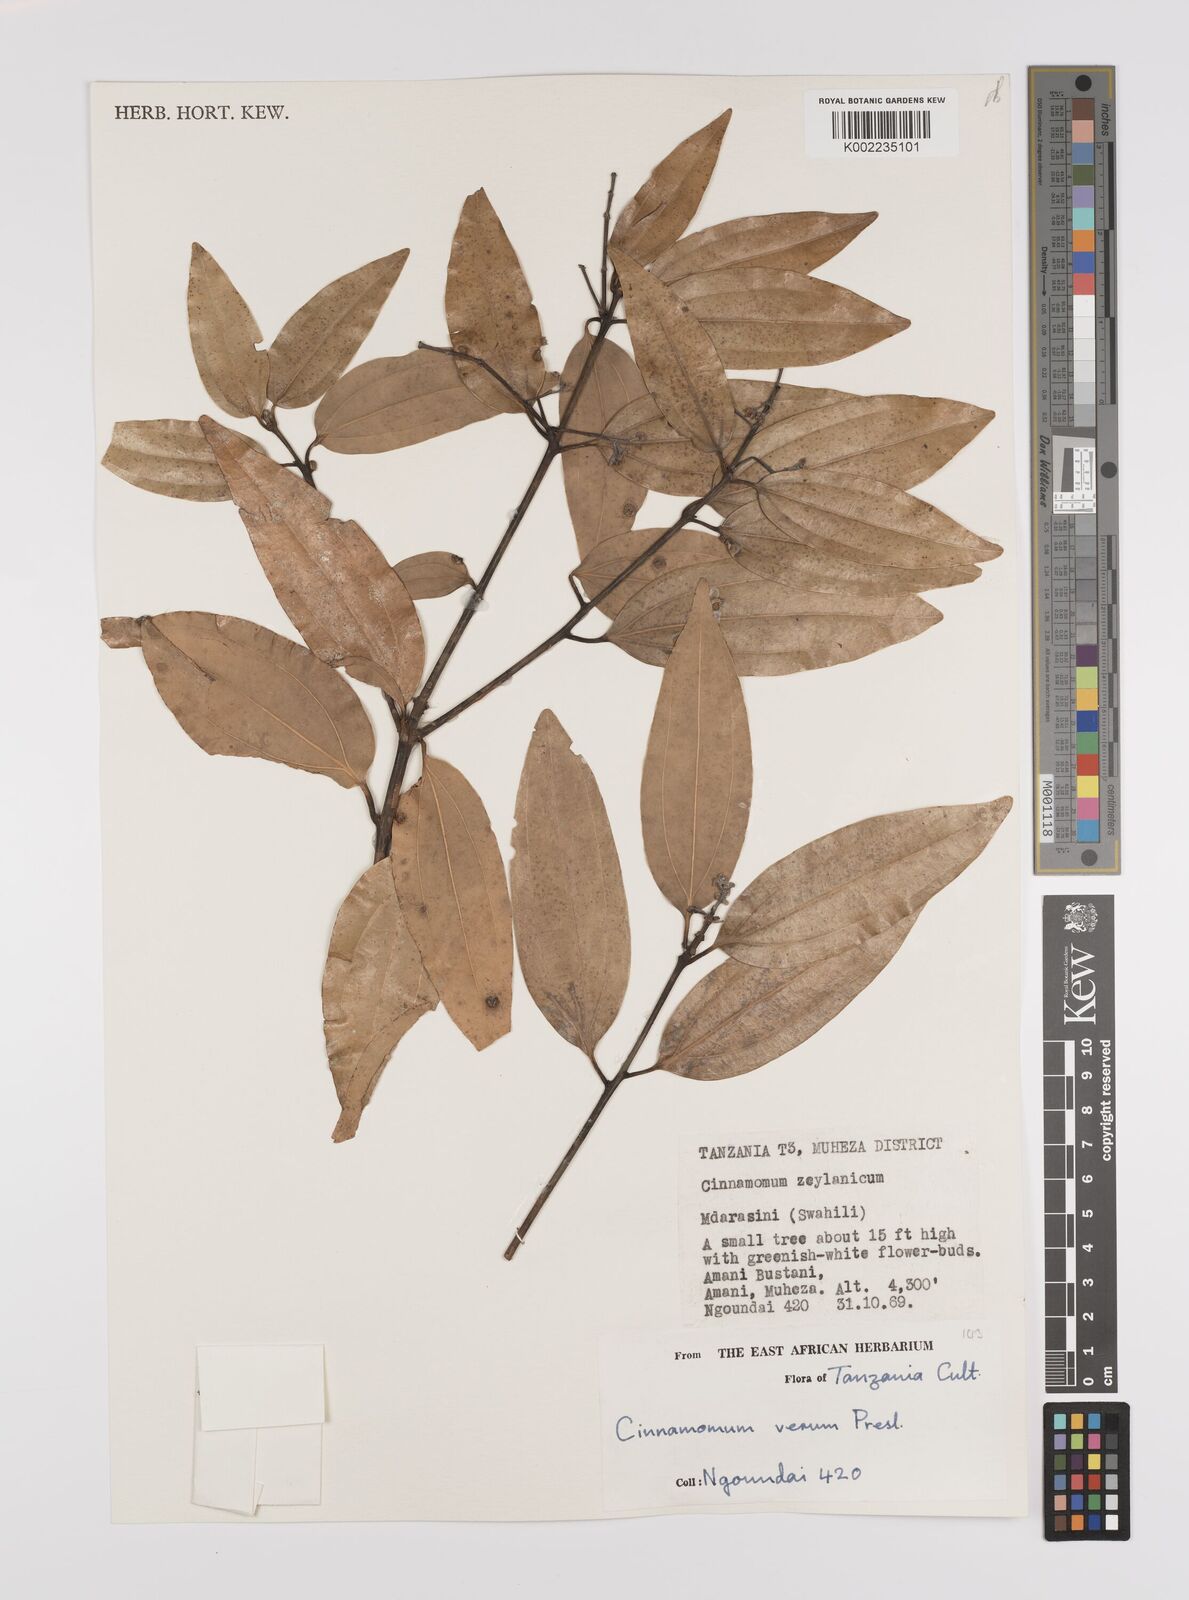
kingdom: Plantae
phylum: Tracheophyta
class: Magnoliopsida
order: Laurales
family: Lauraceae
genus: Cinnamomum
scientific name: Cinnamomum verum
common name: Cinnamon
